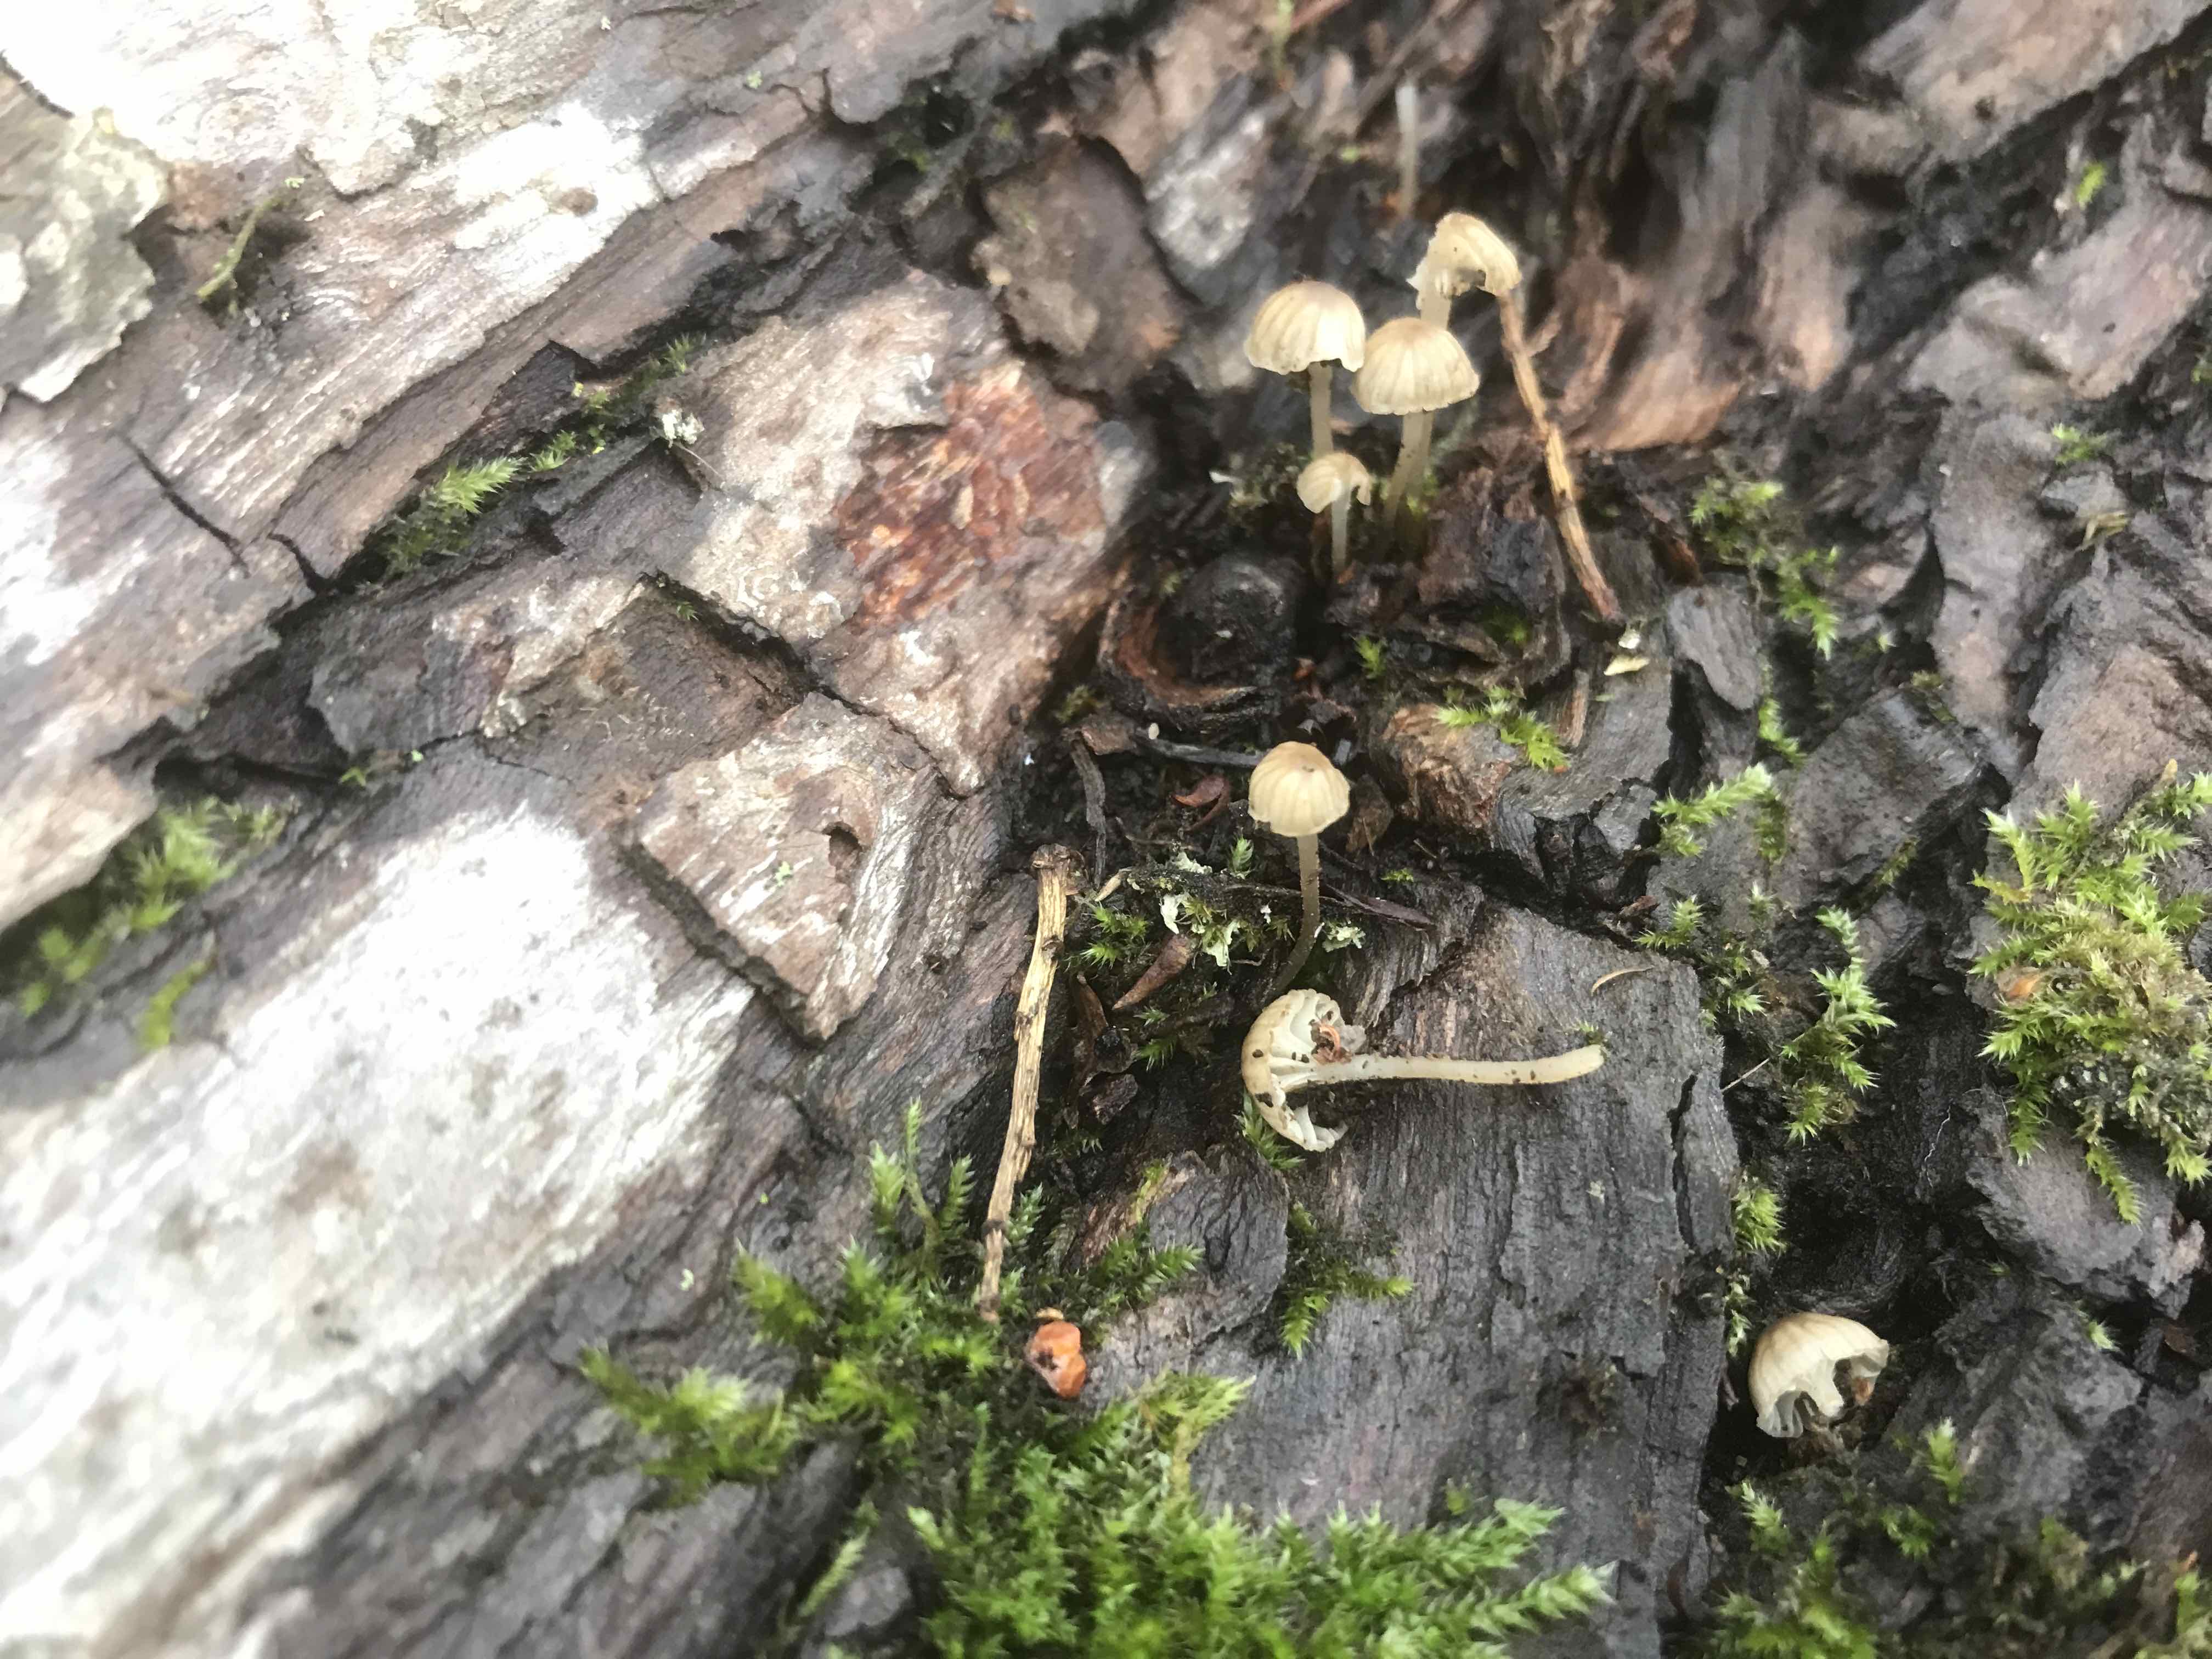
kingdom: Fungi
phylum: Basidiomycota
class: Agaricomycetes
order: Agaricales
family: Porotheleaceae
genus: Phloeomana
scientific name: Phloeomana
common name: huesvamp
